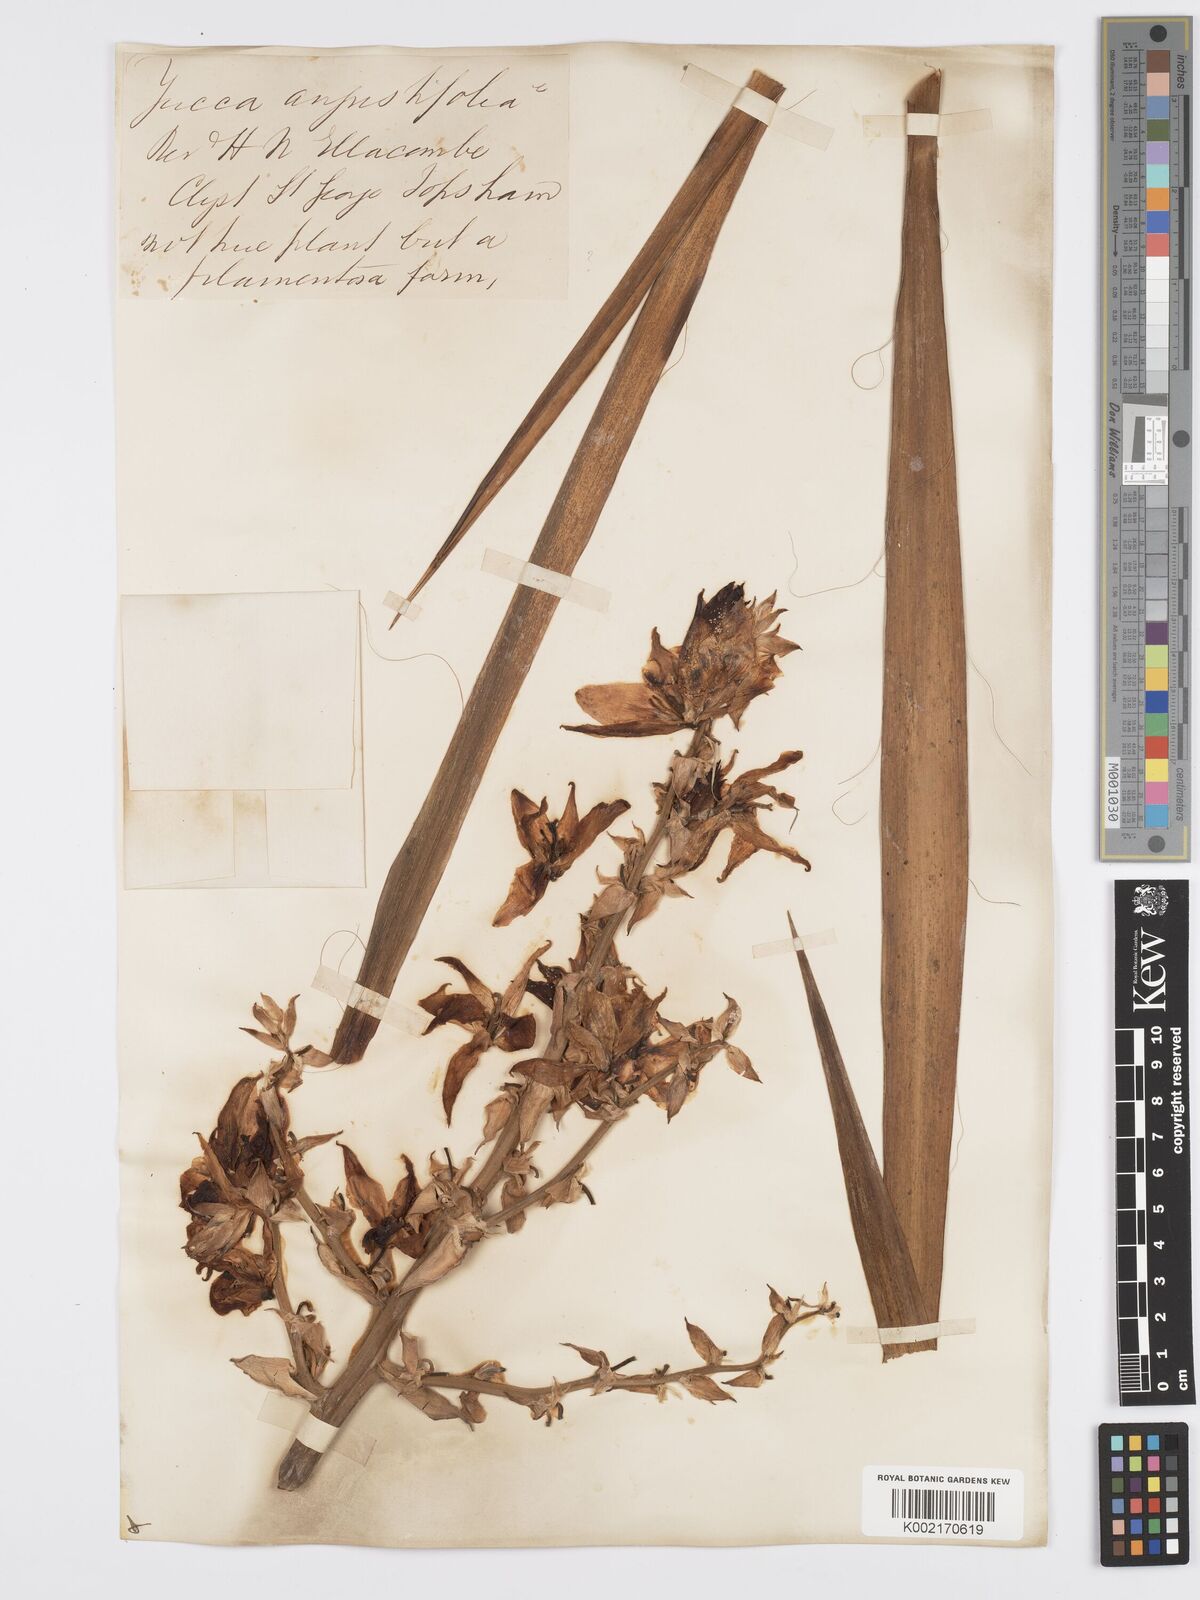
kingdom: Plantae
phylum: Tracheophyta
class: Liliopsida
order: Asparagales
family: Asparagaceae
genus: Yucca
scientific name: Yucca filamentosa
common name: Adam's-needle
